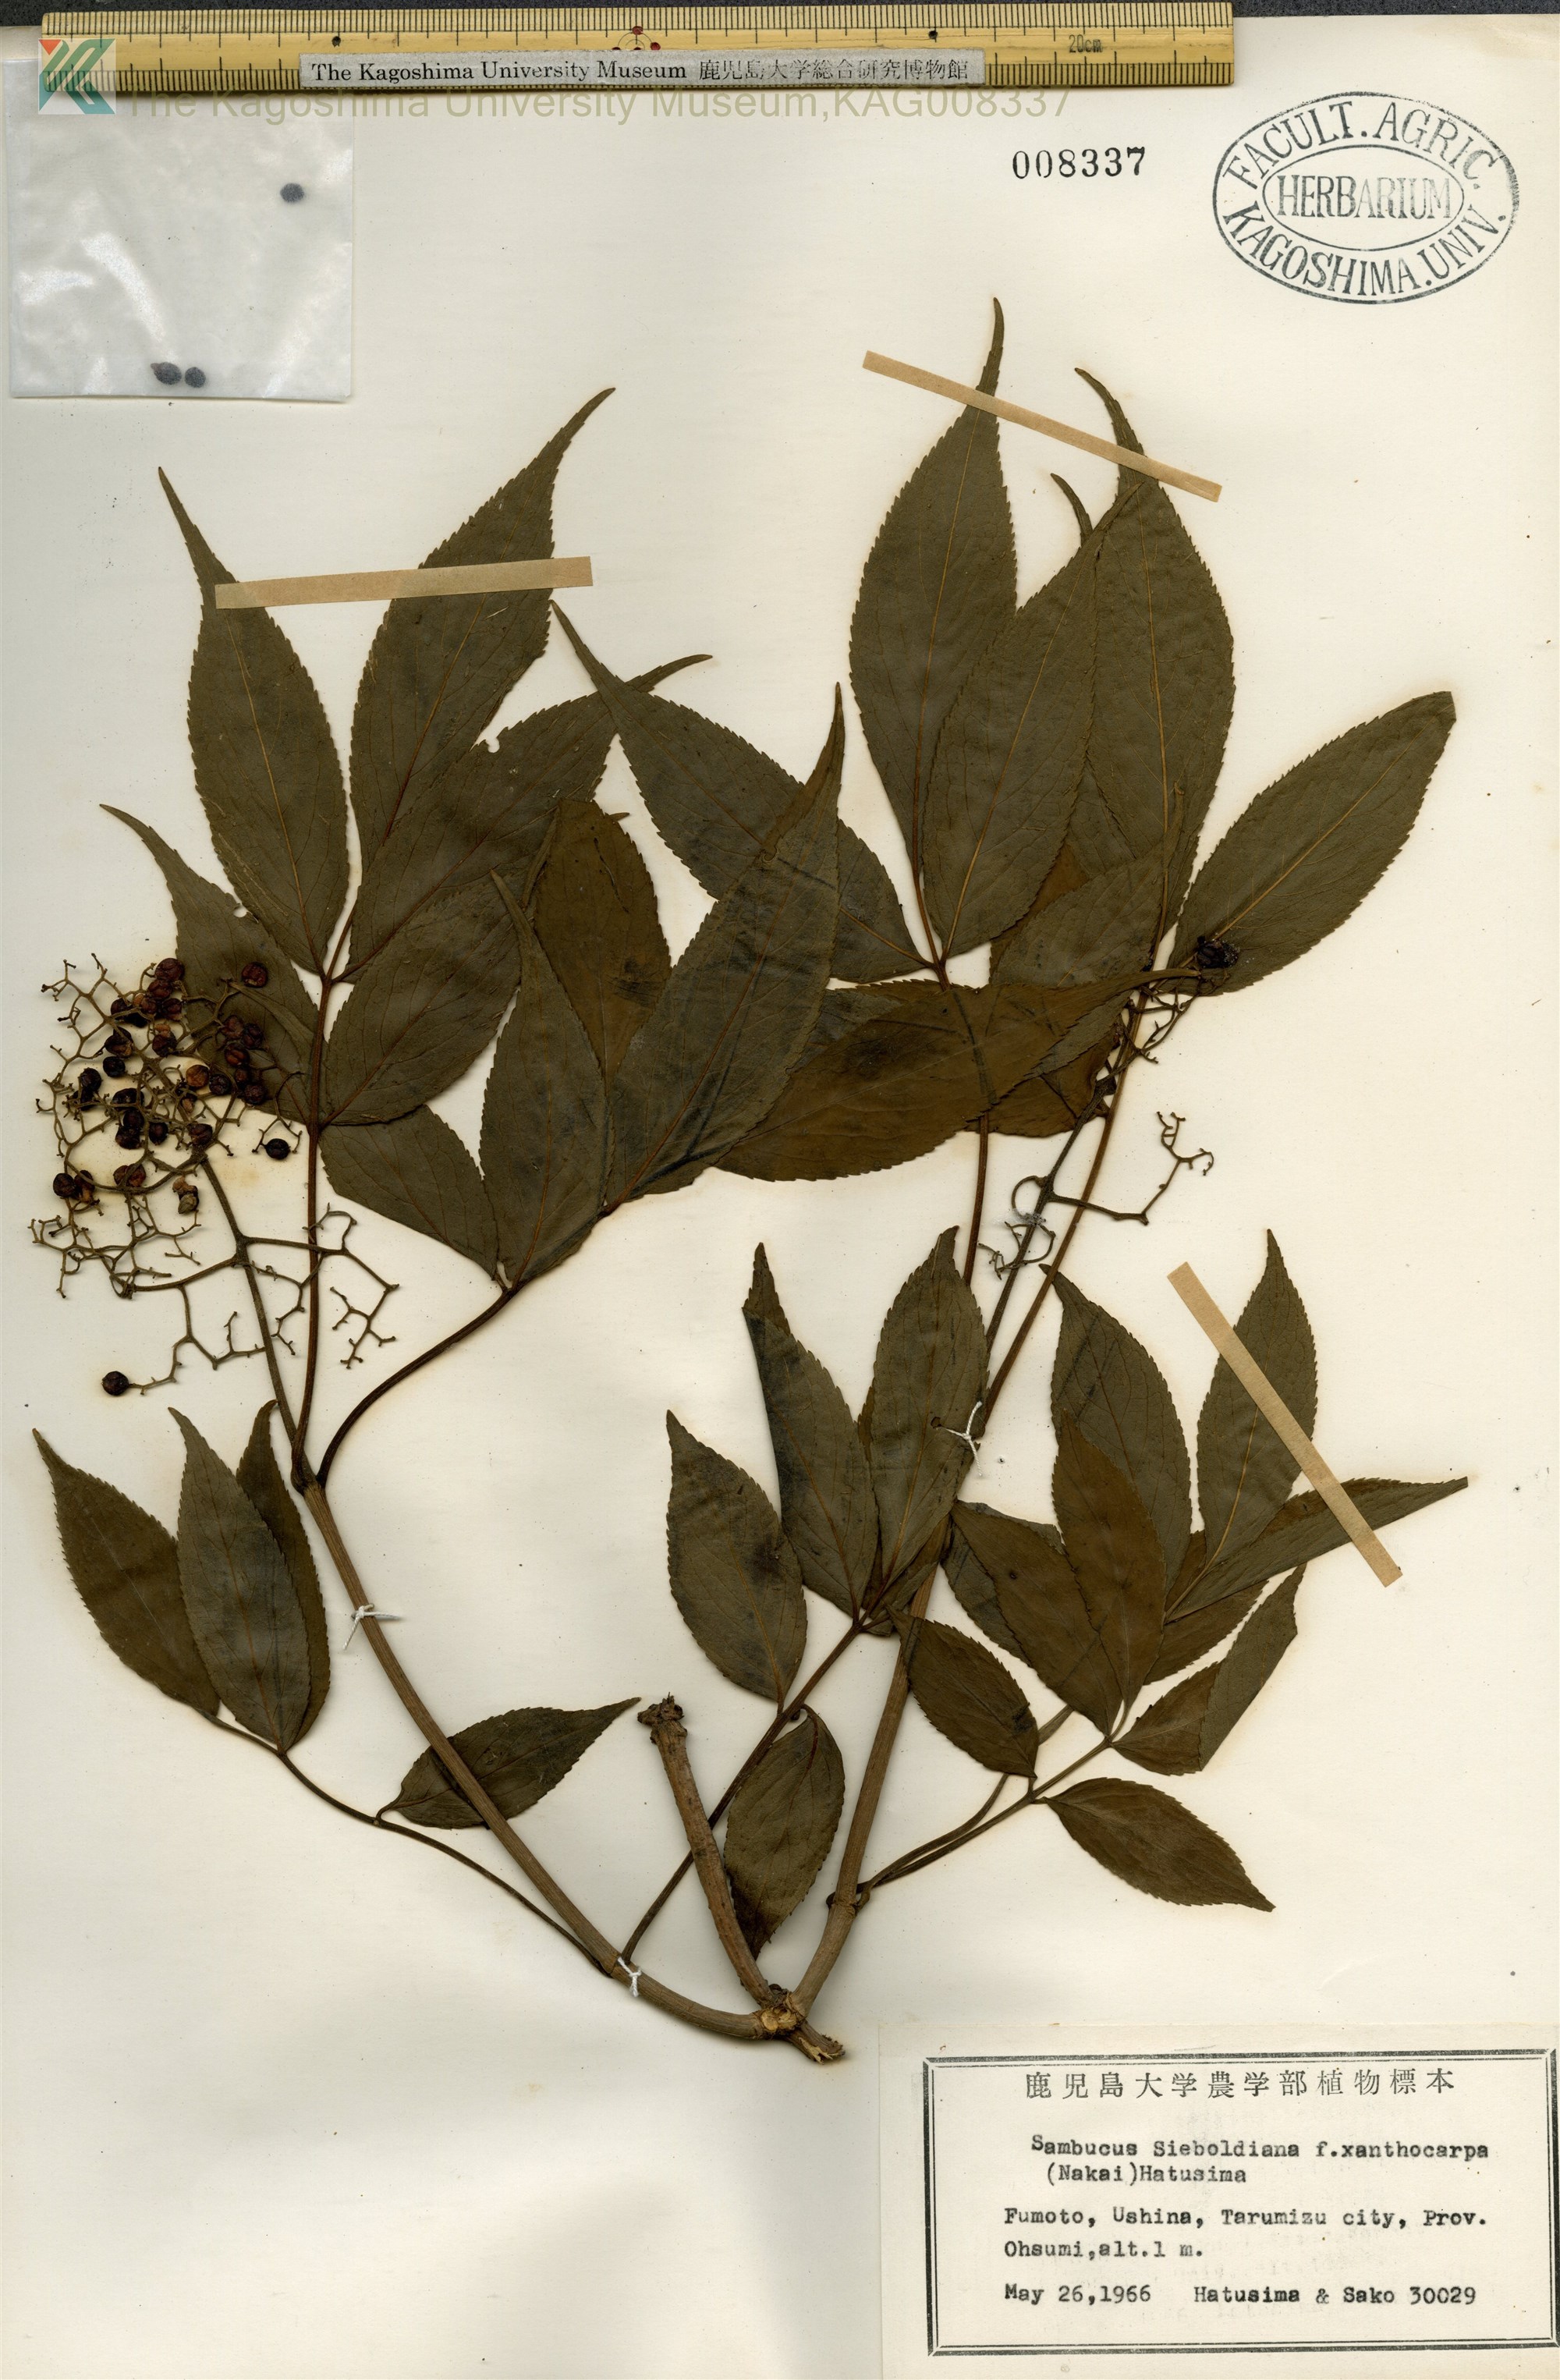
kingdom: Plantae
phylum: Tracheophyta
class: Magnoliopsida
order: Dipsacales
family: Viburnaceae
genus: Sambucus
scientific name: Sambucus sieboldiana
